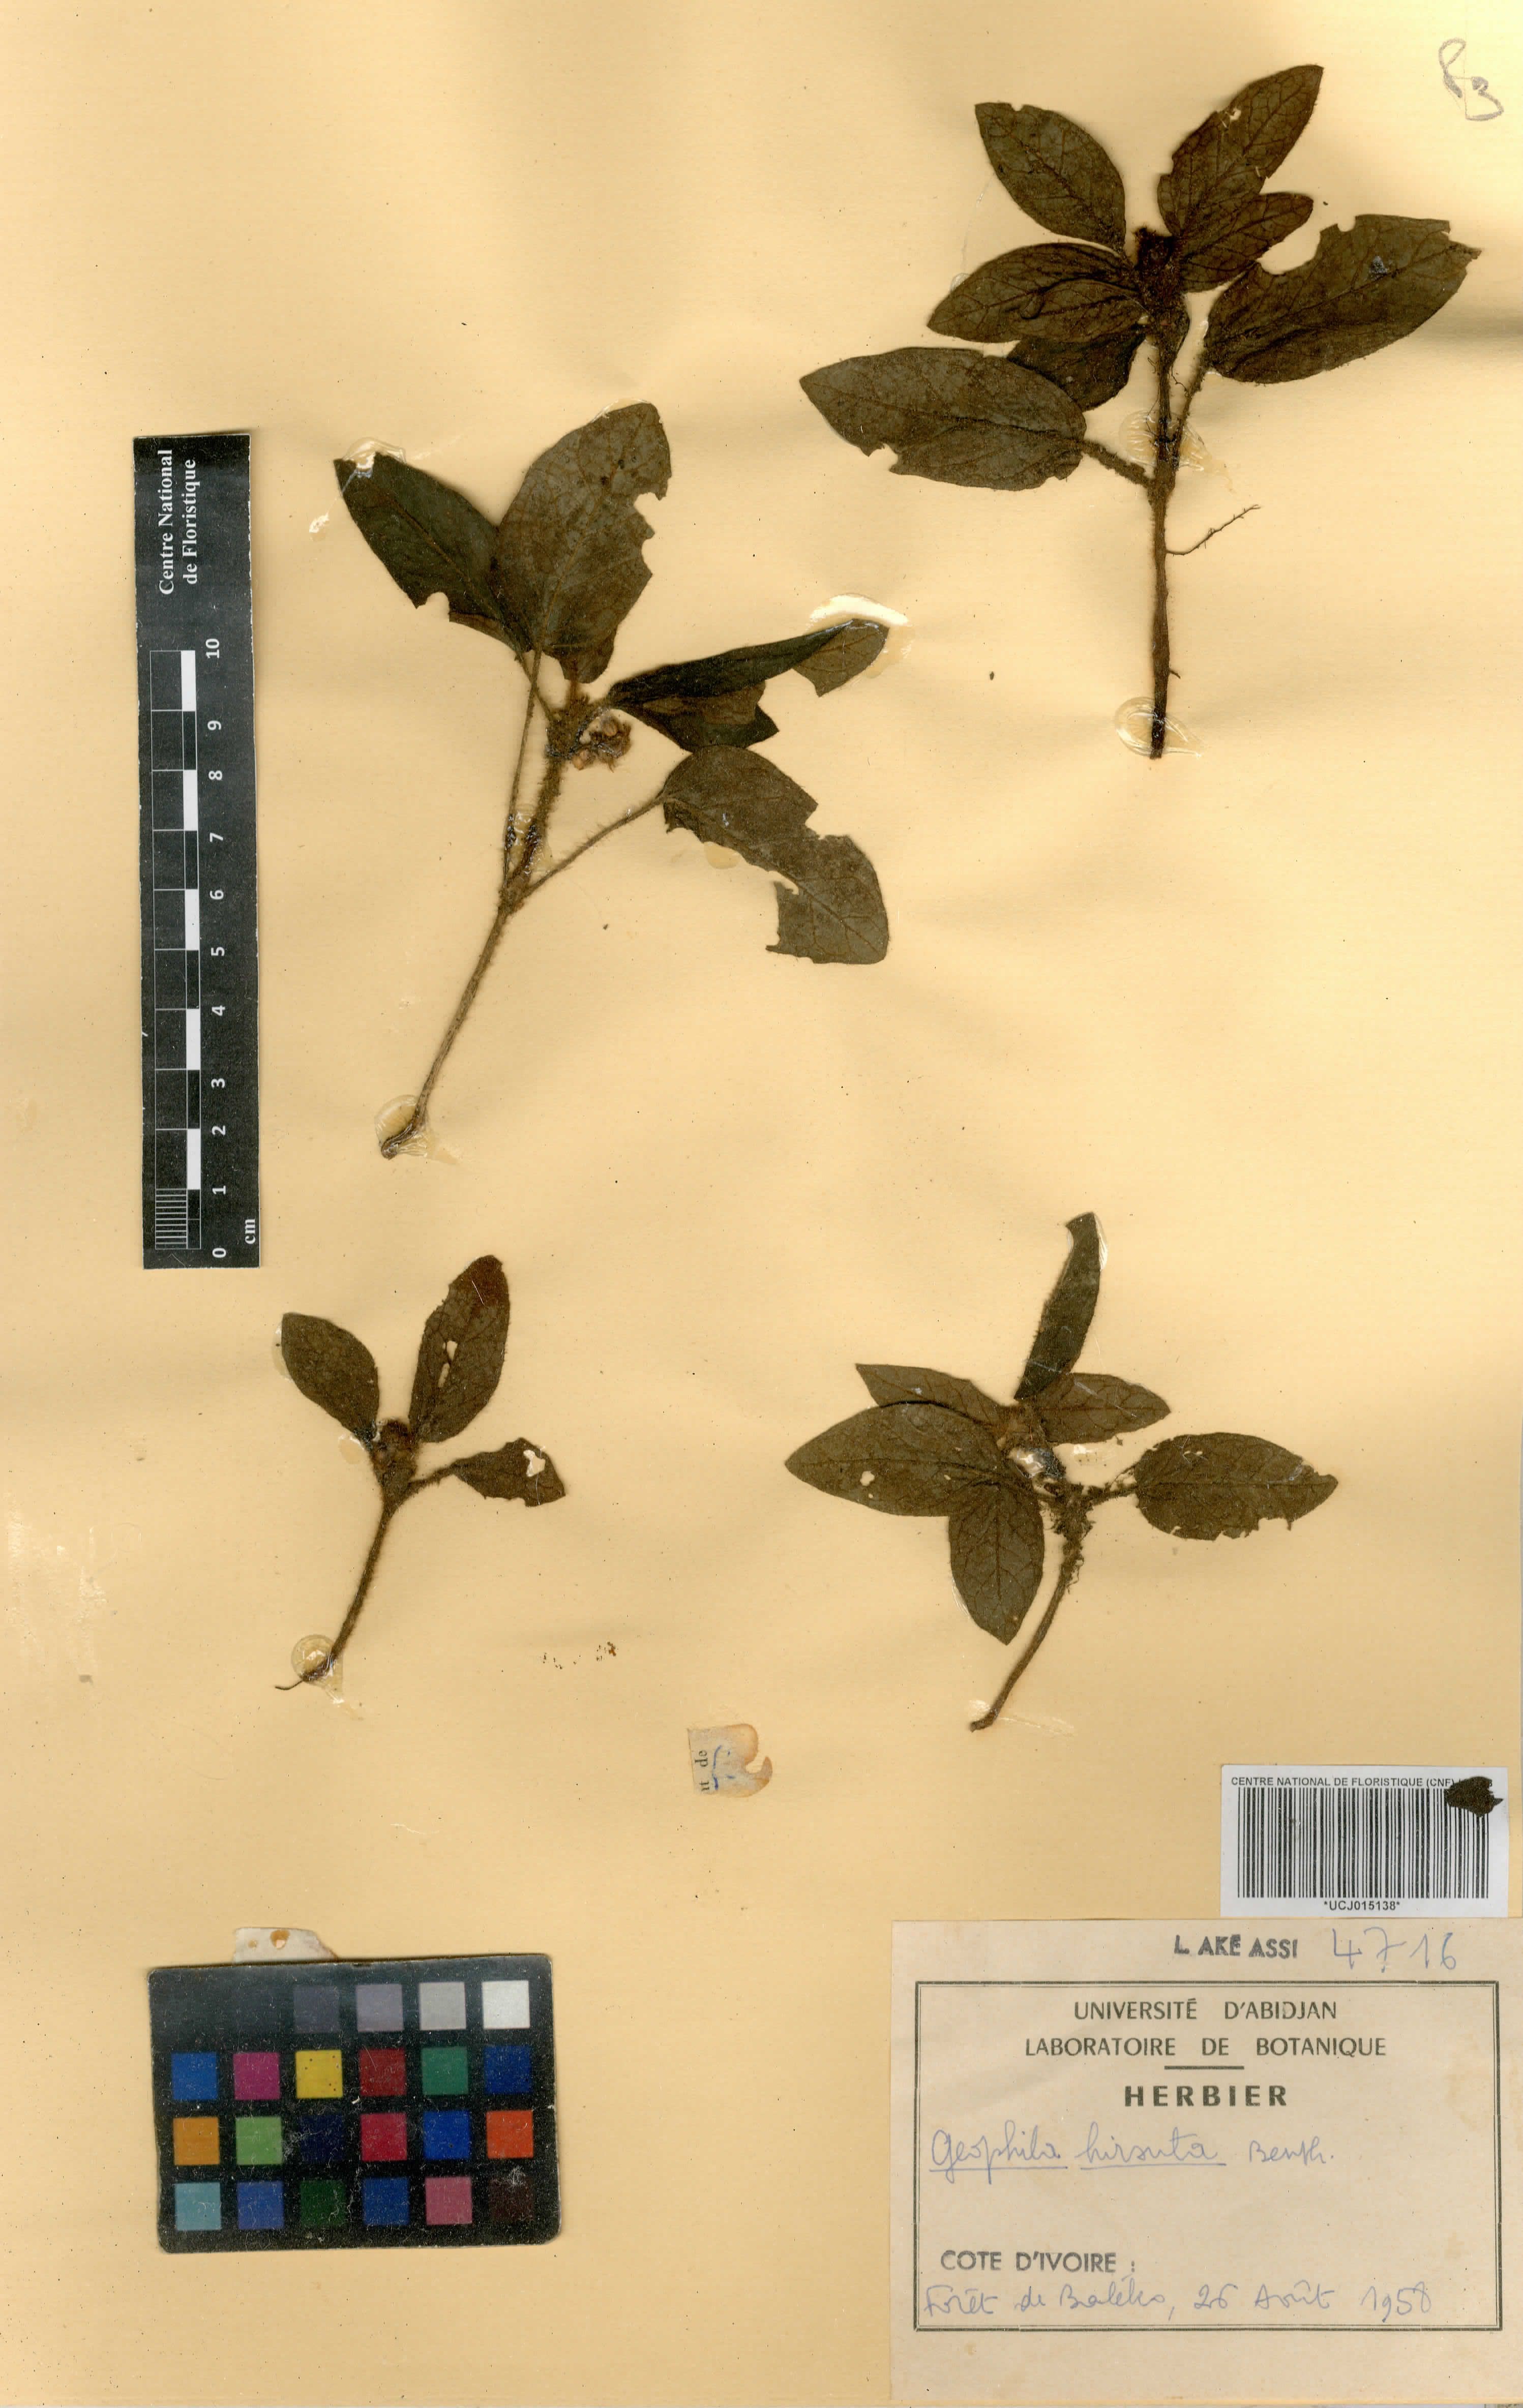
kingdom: Plantae
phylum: Tracheophyta
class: Magnoliopsida
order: Gentianales
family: Rubiaceae
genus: Hymenocoleus
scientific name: Hymenocoleus hirsutus
